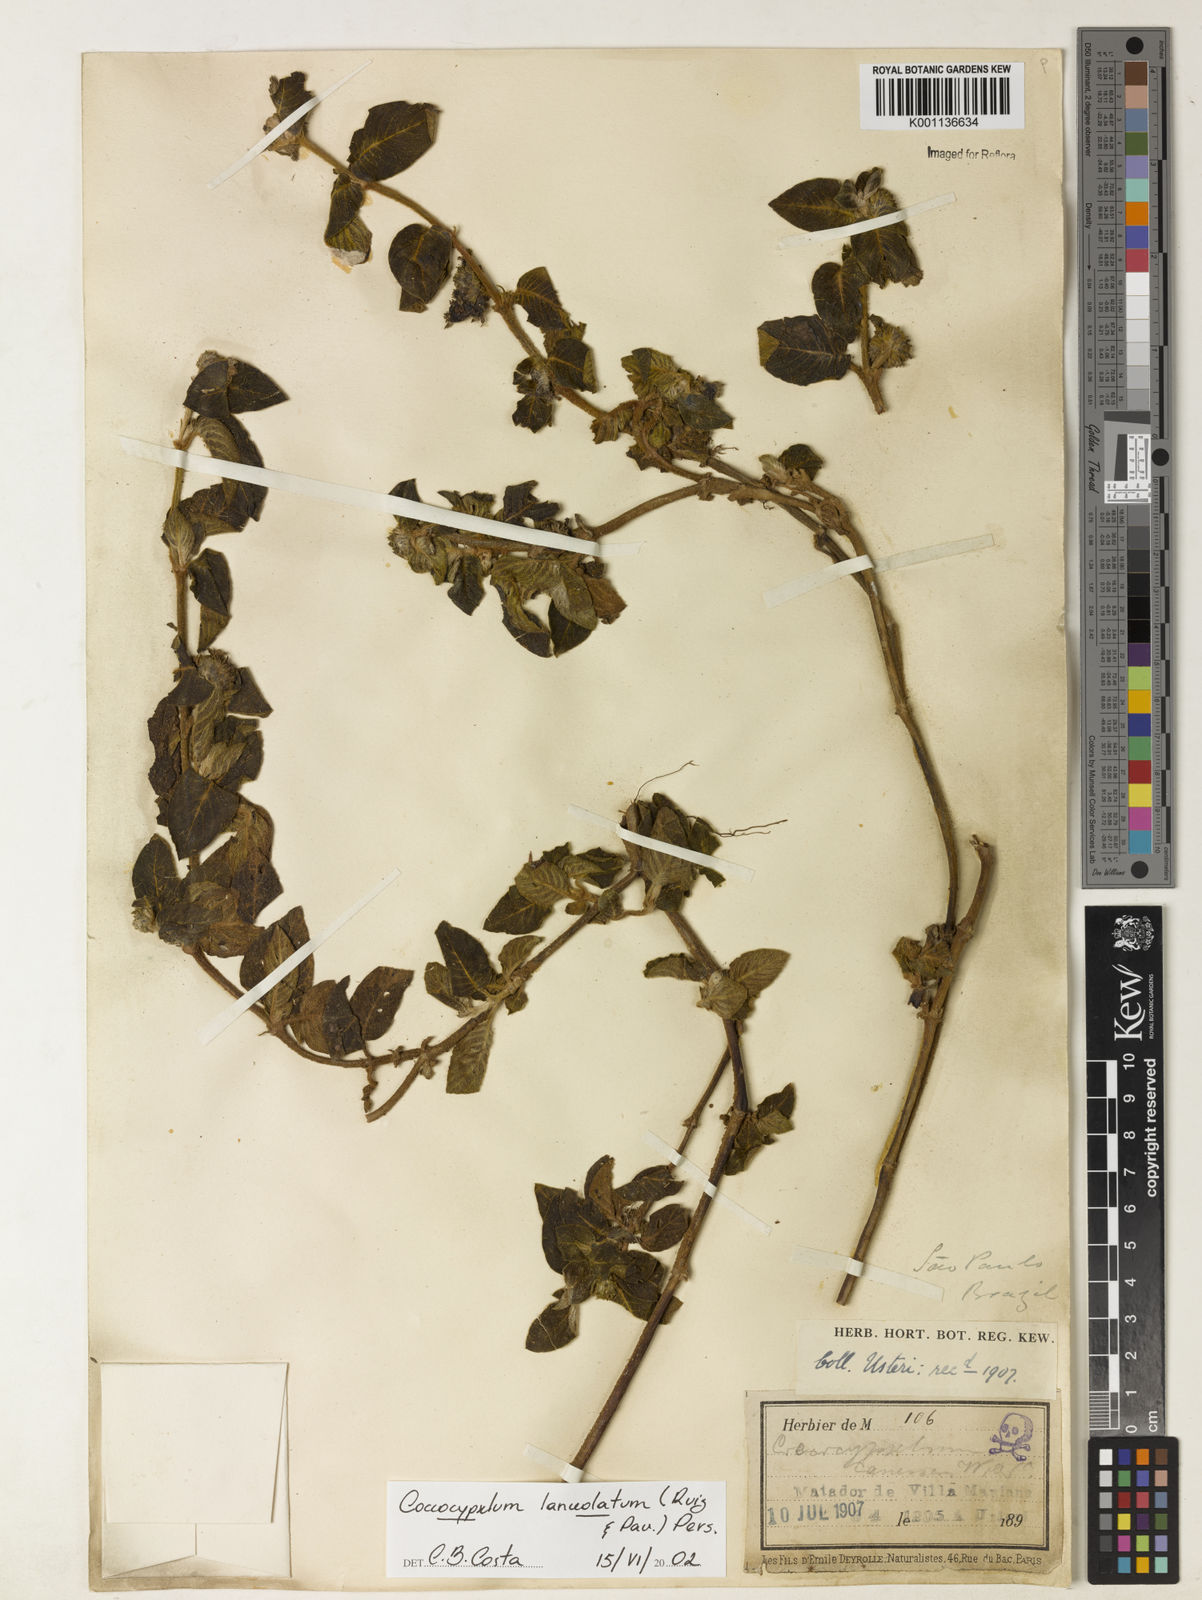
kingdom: Plantae
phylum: Tracheophyta
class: Magnoliopsida
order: Gentianales
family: Rubiaceae
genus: Coccocypselum
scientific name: Coccocypselum lanceolatum
